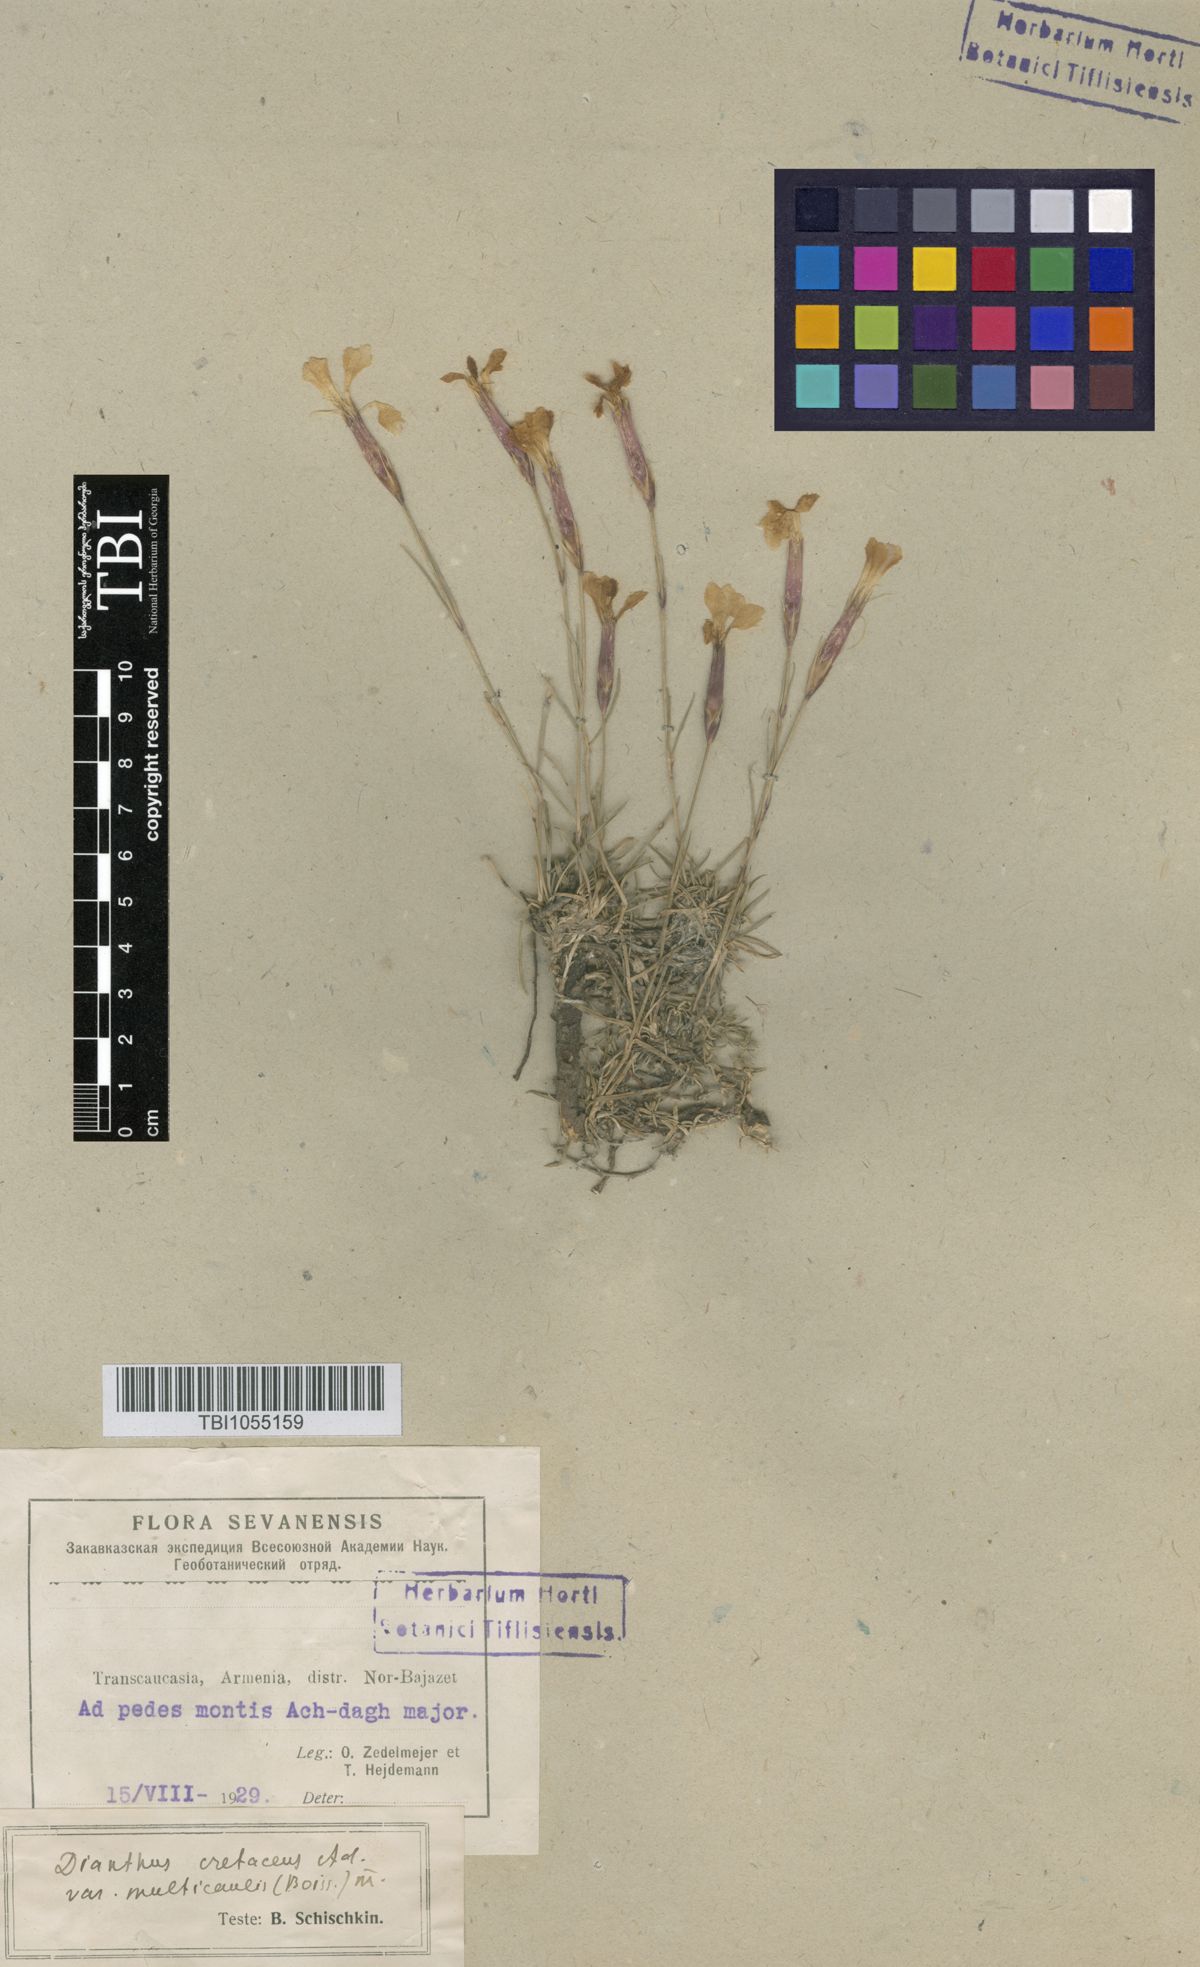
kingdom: Plantae
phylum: Tracheophyta
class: Magnoliopsida
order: Caryophyllales
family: Caryophyllaceae
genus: Dianthus
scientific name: Dianthus cretaceus
